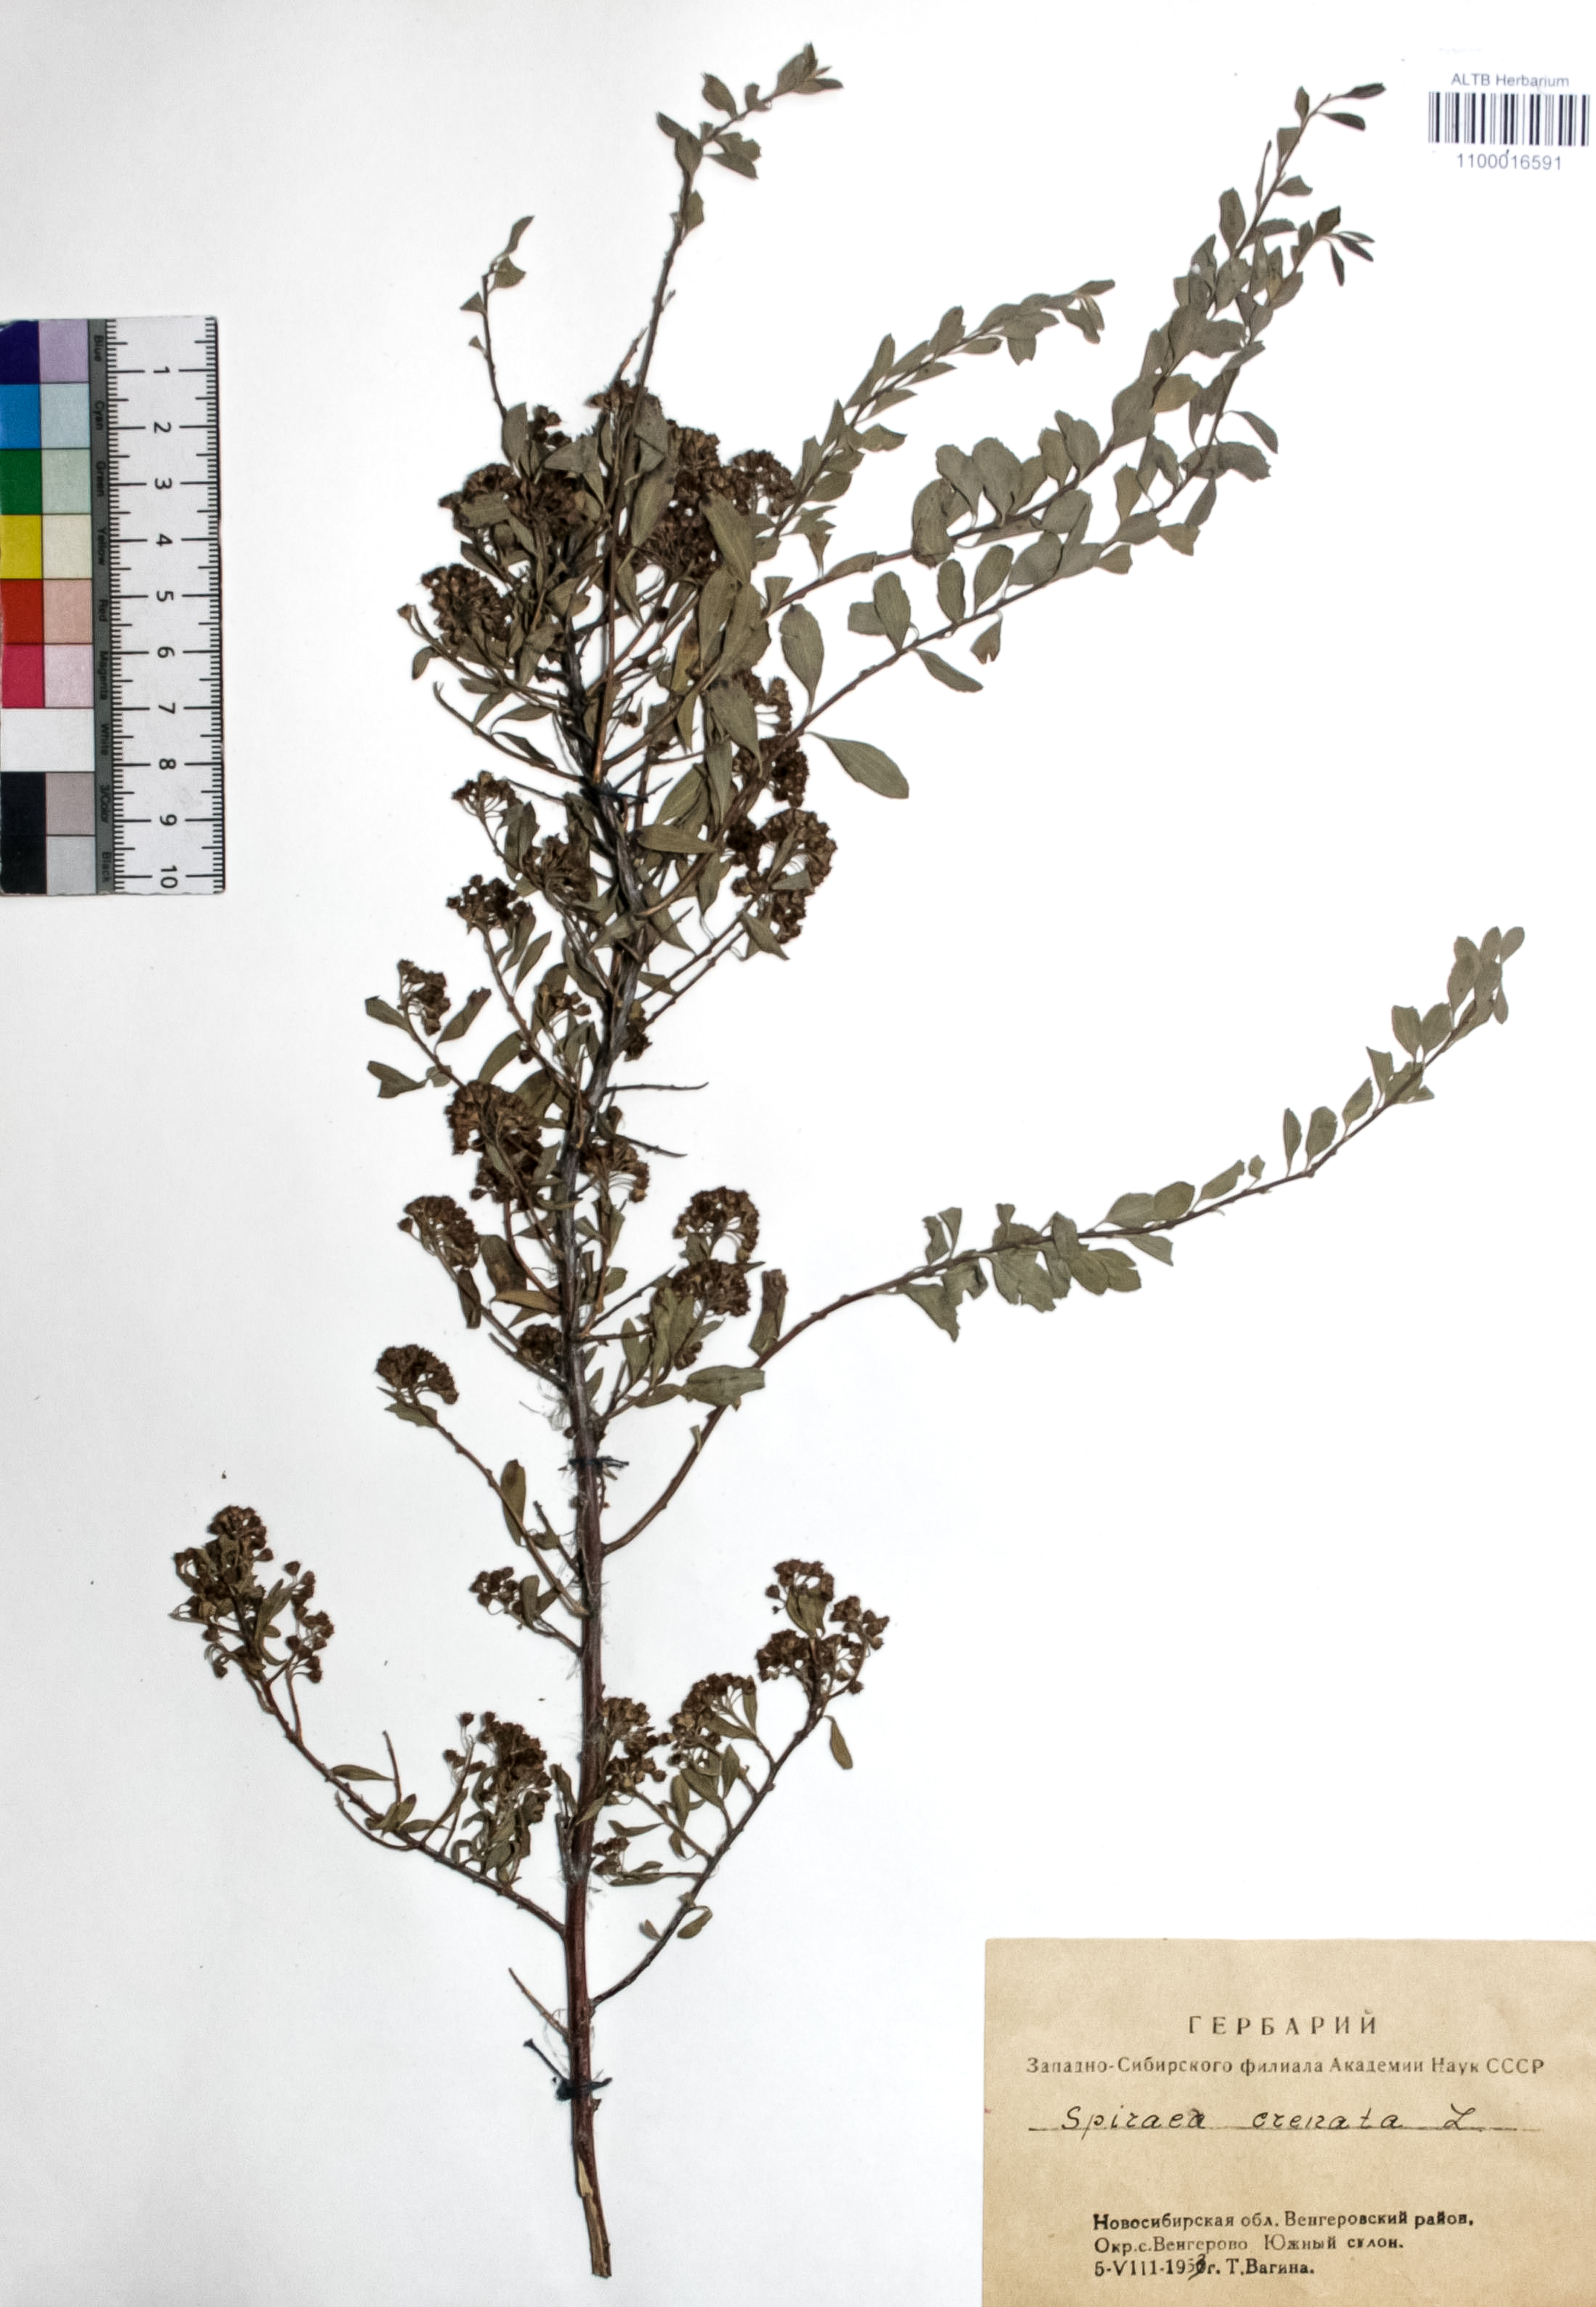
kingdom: Plantae
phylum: Tracheophyta
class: Magnoliopsida
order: Rosales
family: Rosaceae
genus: Spiraea
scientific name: Spiraea crenata
